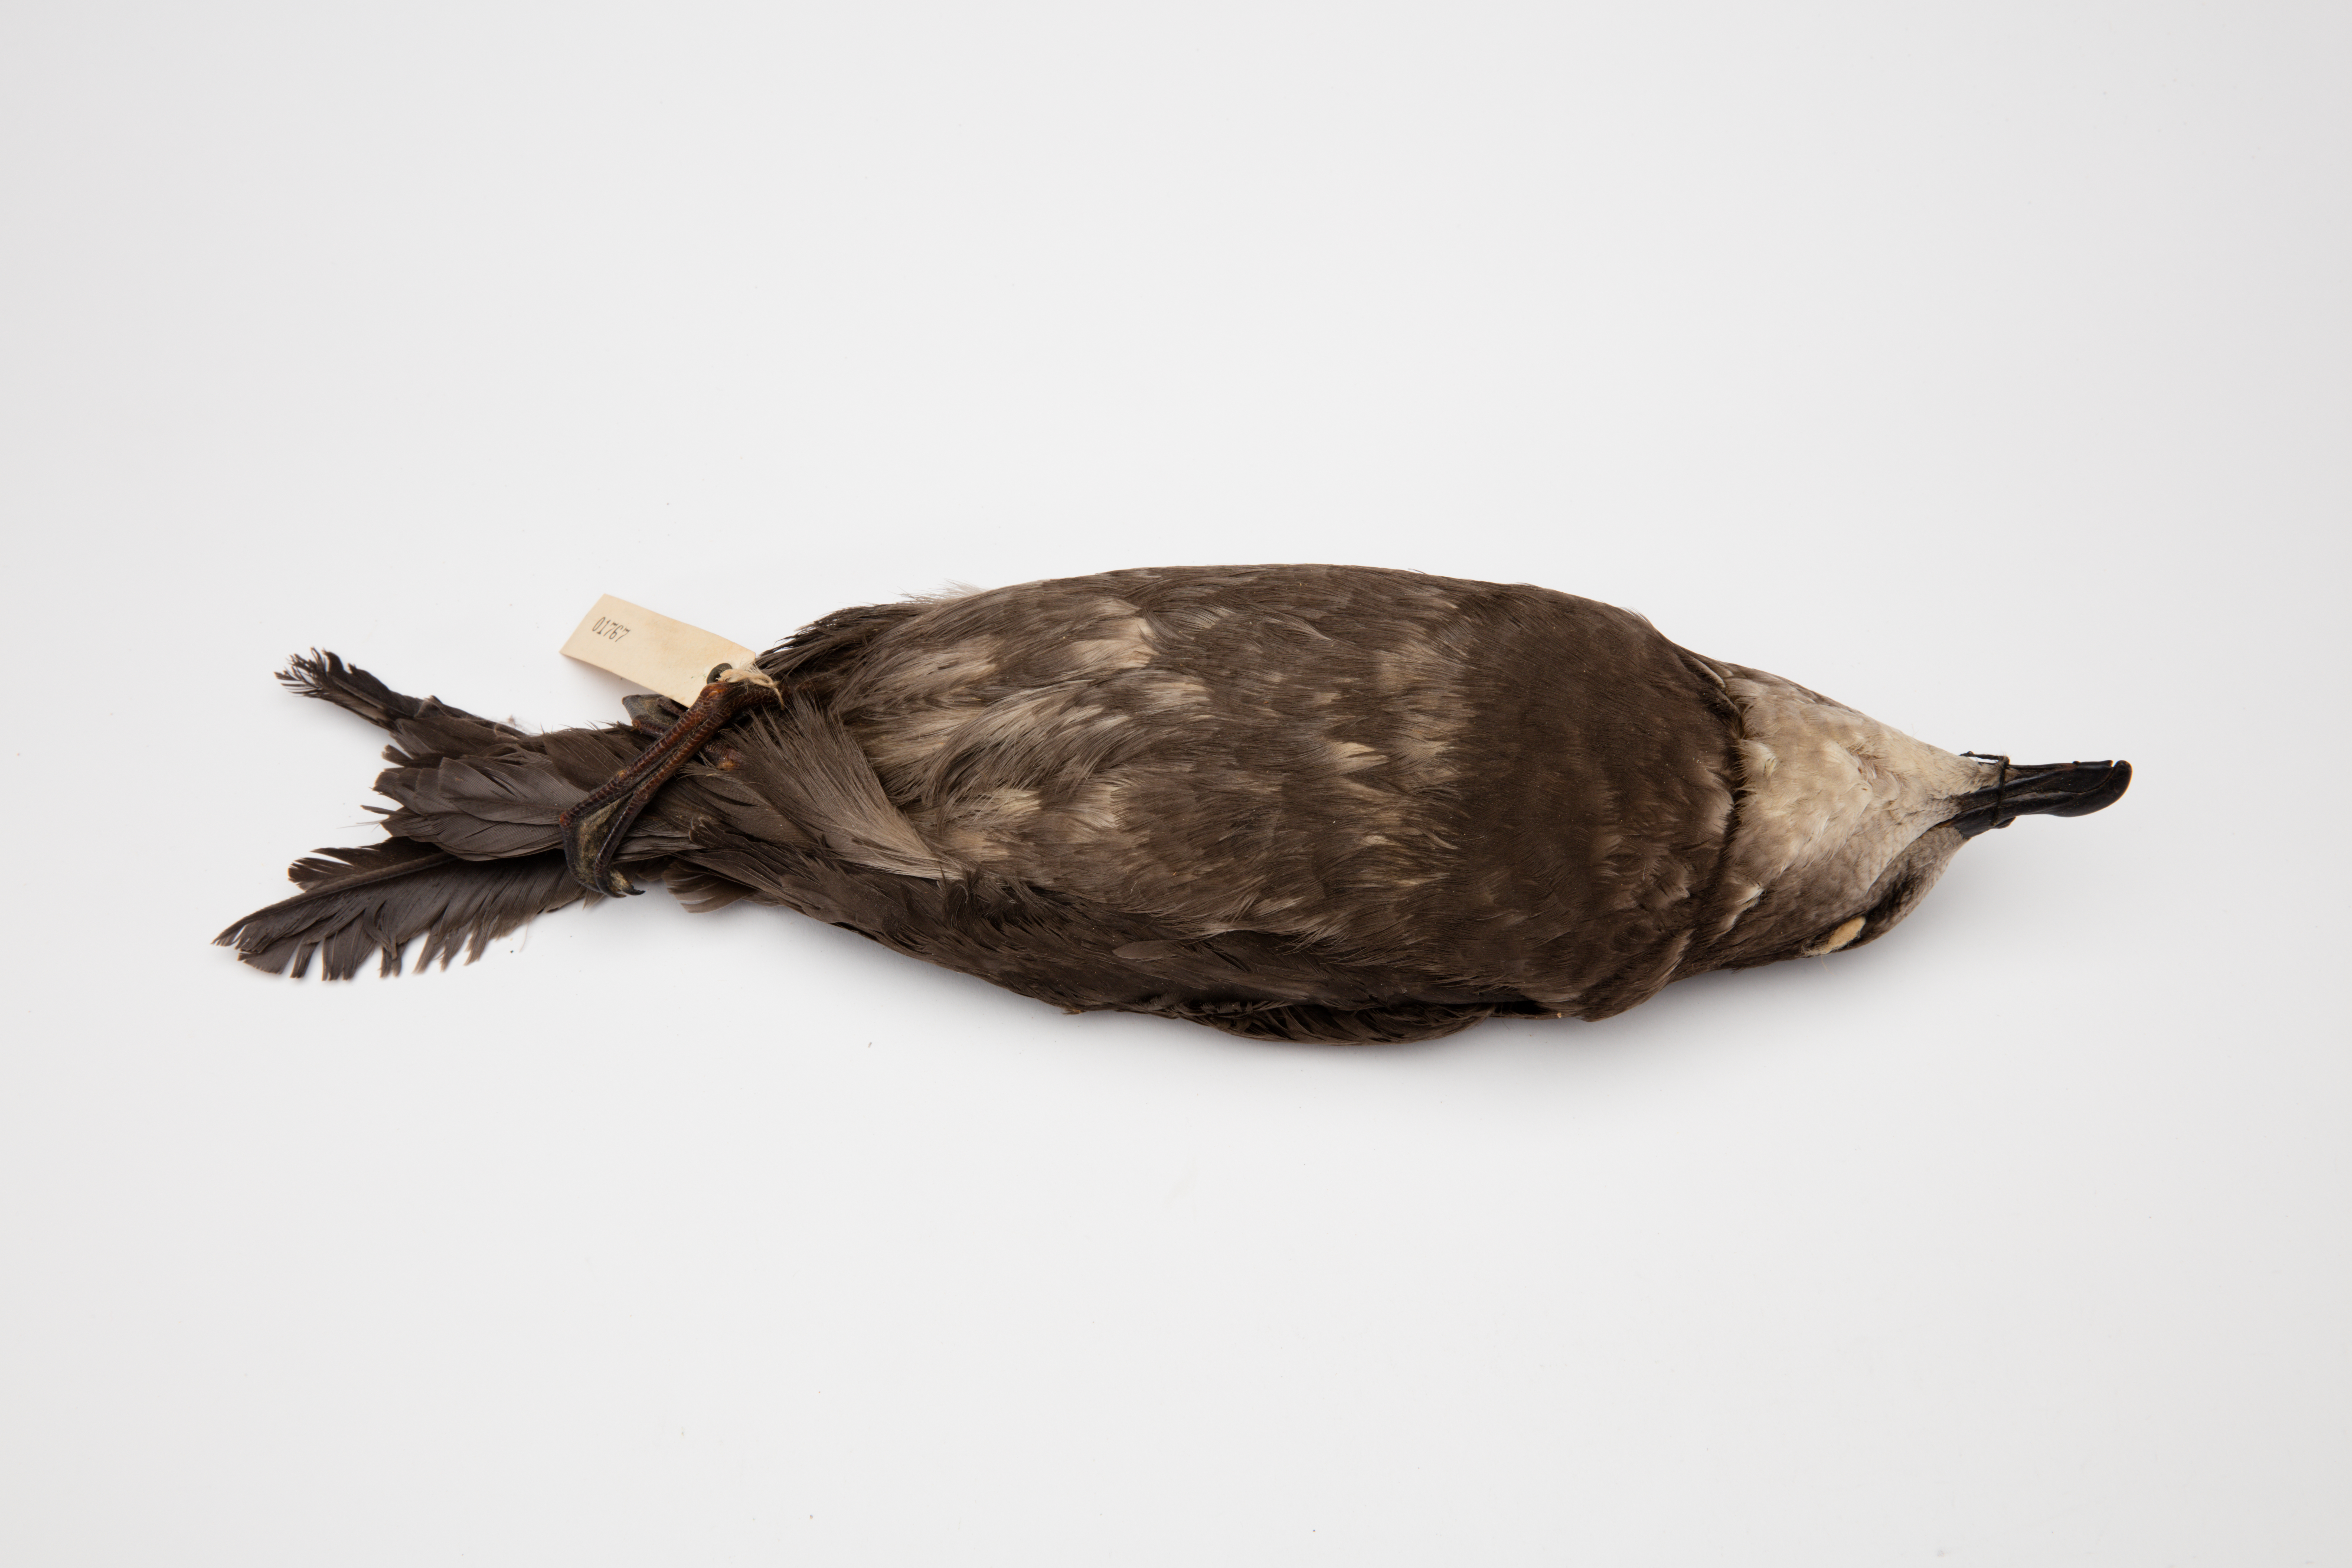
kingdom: Animalia
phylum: Chordata
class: Aves
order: Procellariiformes
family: Procellariidae
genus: Pterodroma
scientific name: Pterodroma macroptera
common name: Great-winged petrel
